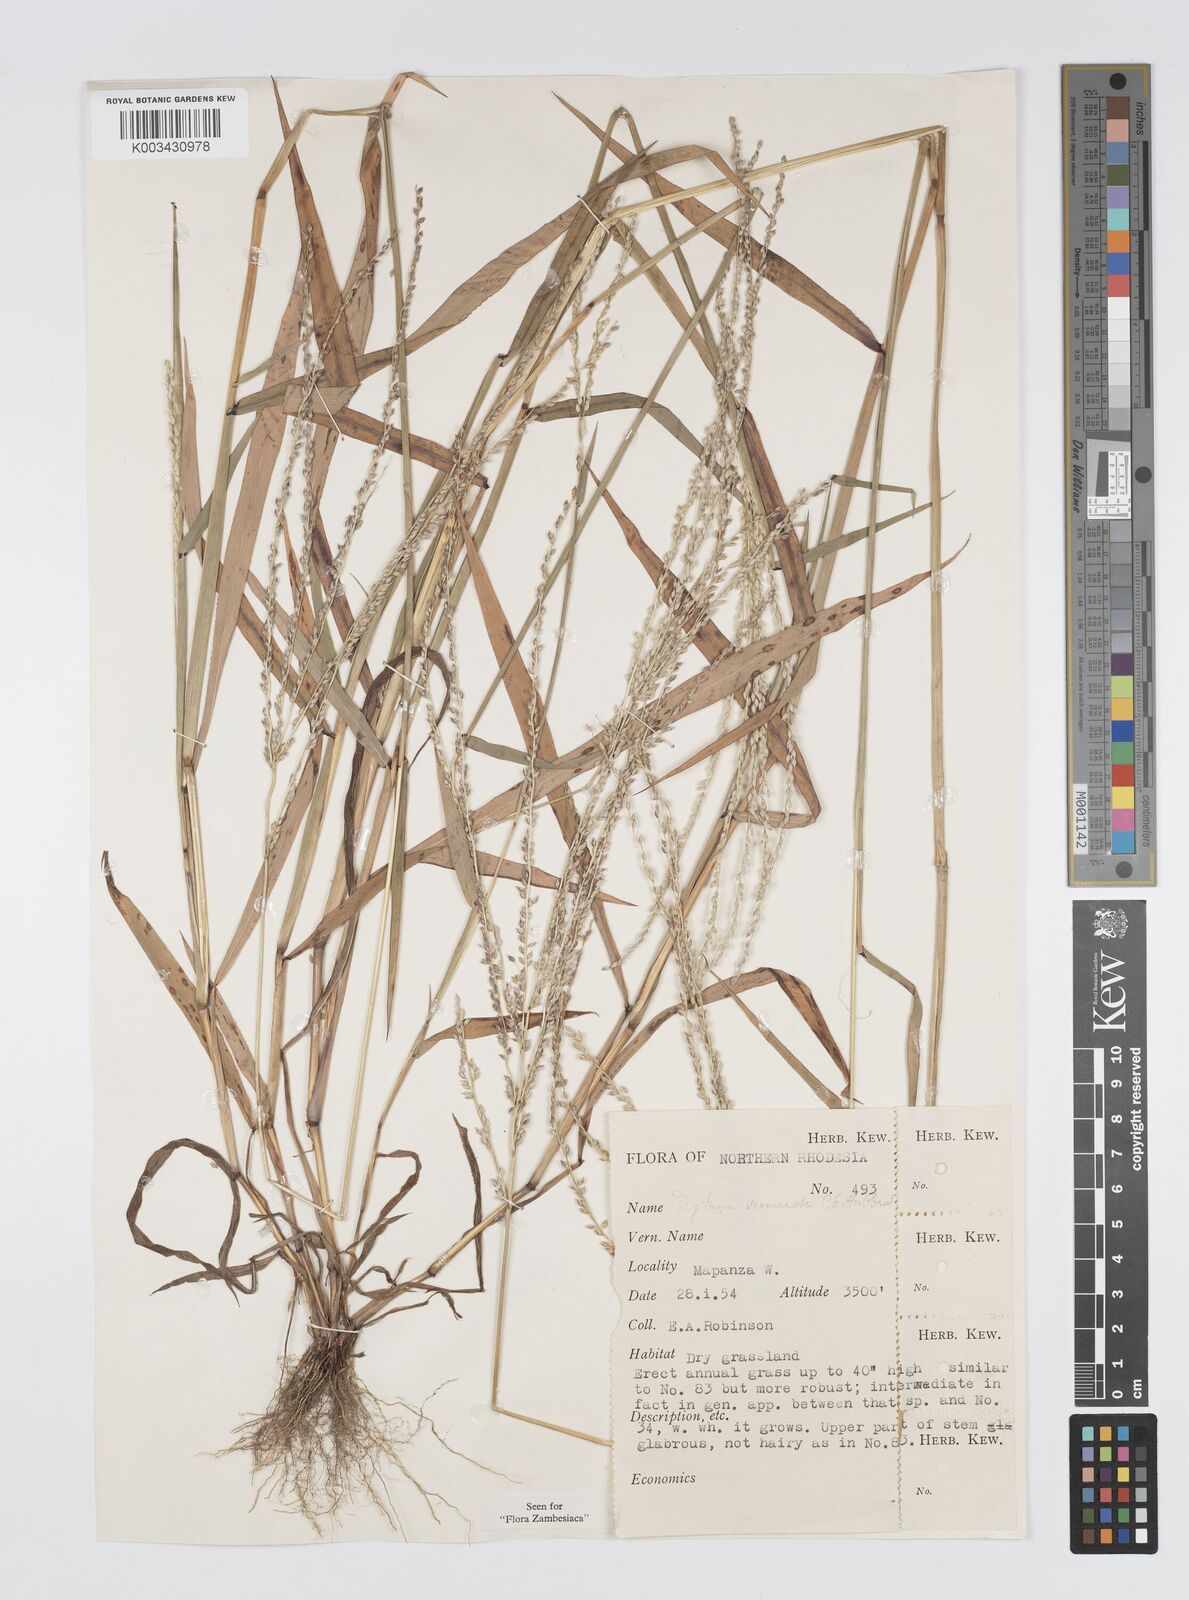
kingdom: Plantae
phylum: Tracheophyta
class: Liliopsida
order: Poales
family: Poaceae
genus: Digitaria
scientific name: Digitaria angolensis
